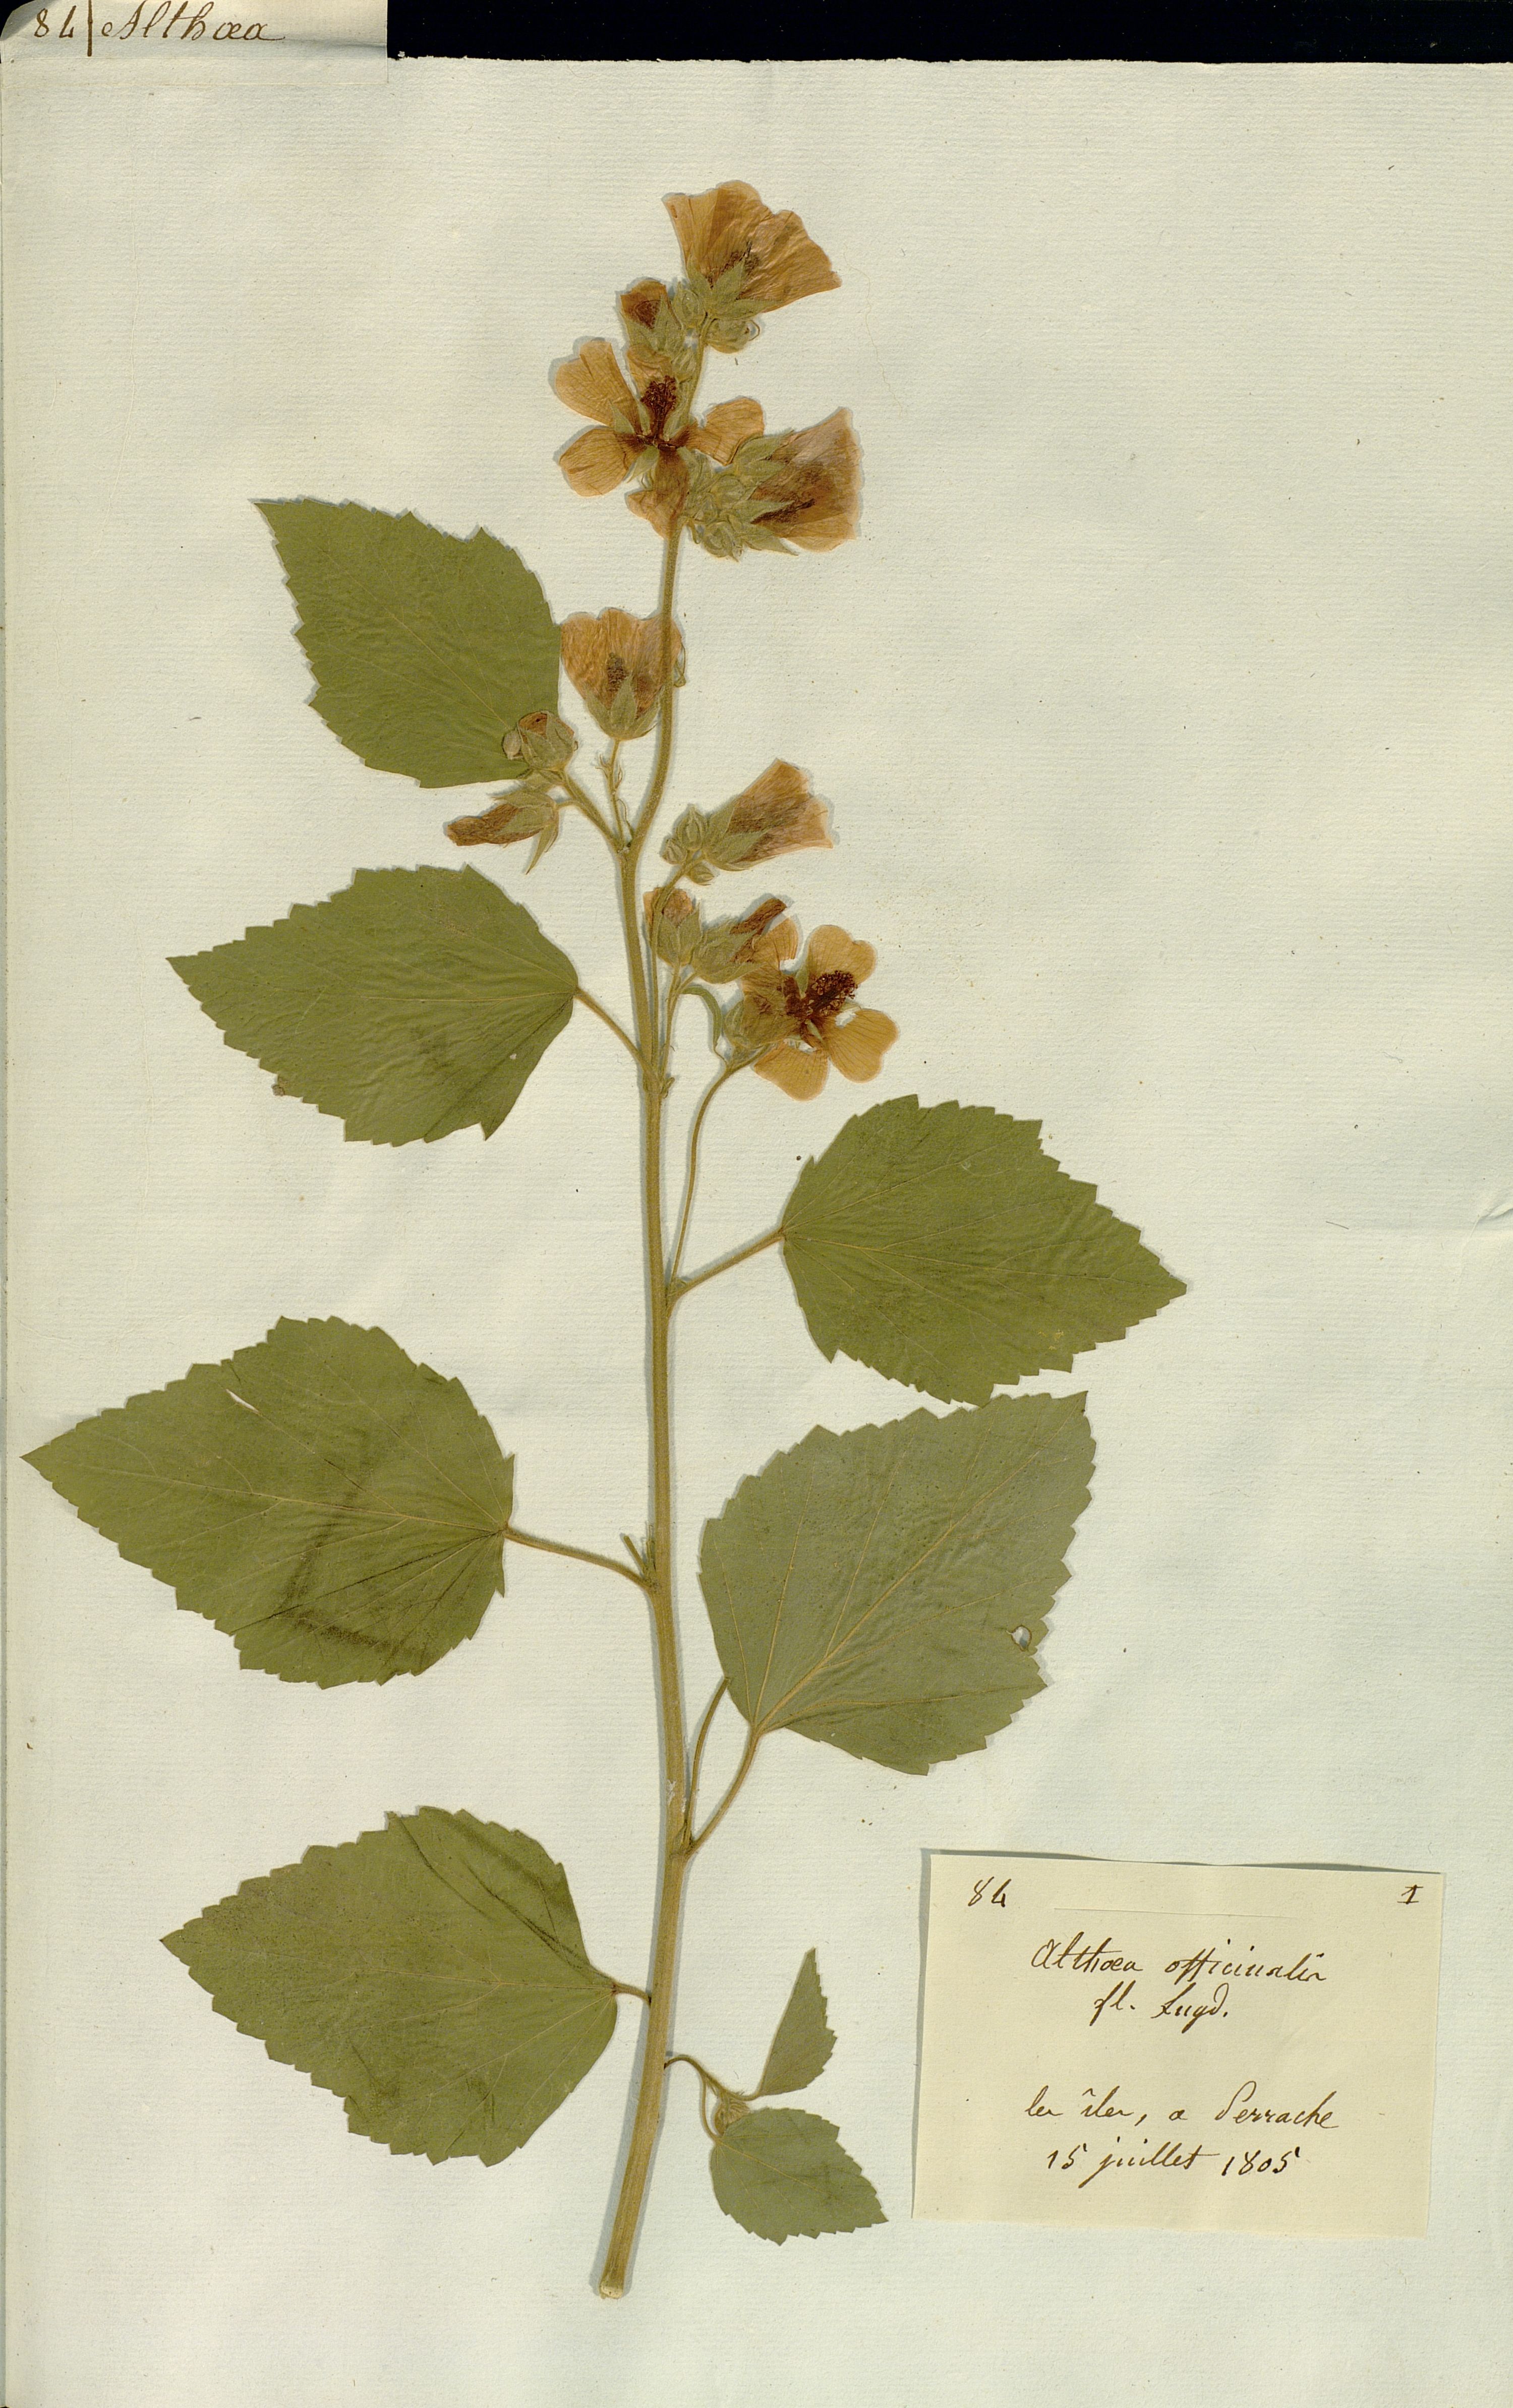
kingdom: Plantae
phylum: Tracheophyta
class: Magnoliopsida
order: Malvales
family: Malvaceae
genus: Althaea
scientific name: Althaea officinalis
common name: Marsh-mallow
